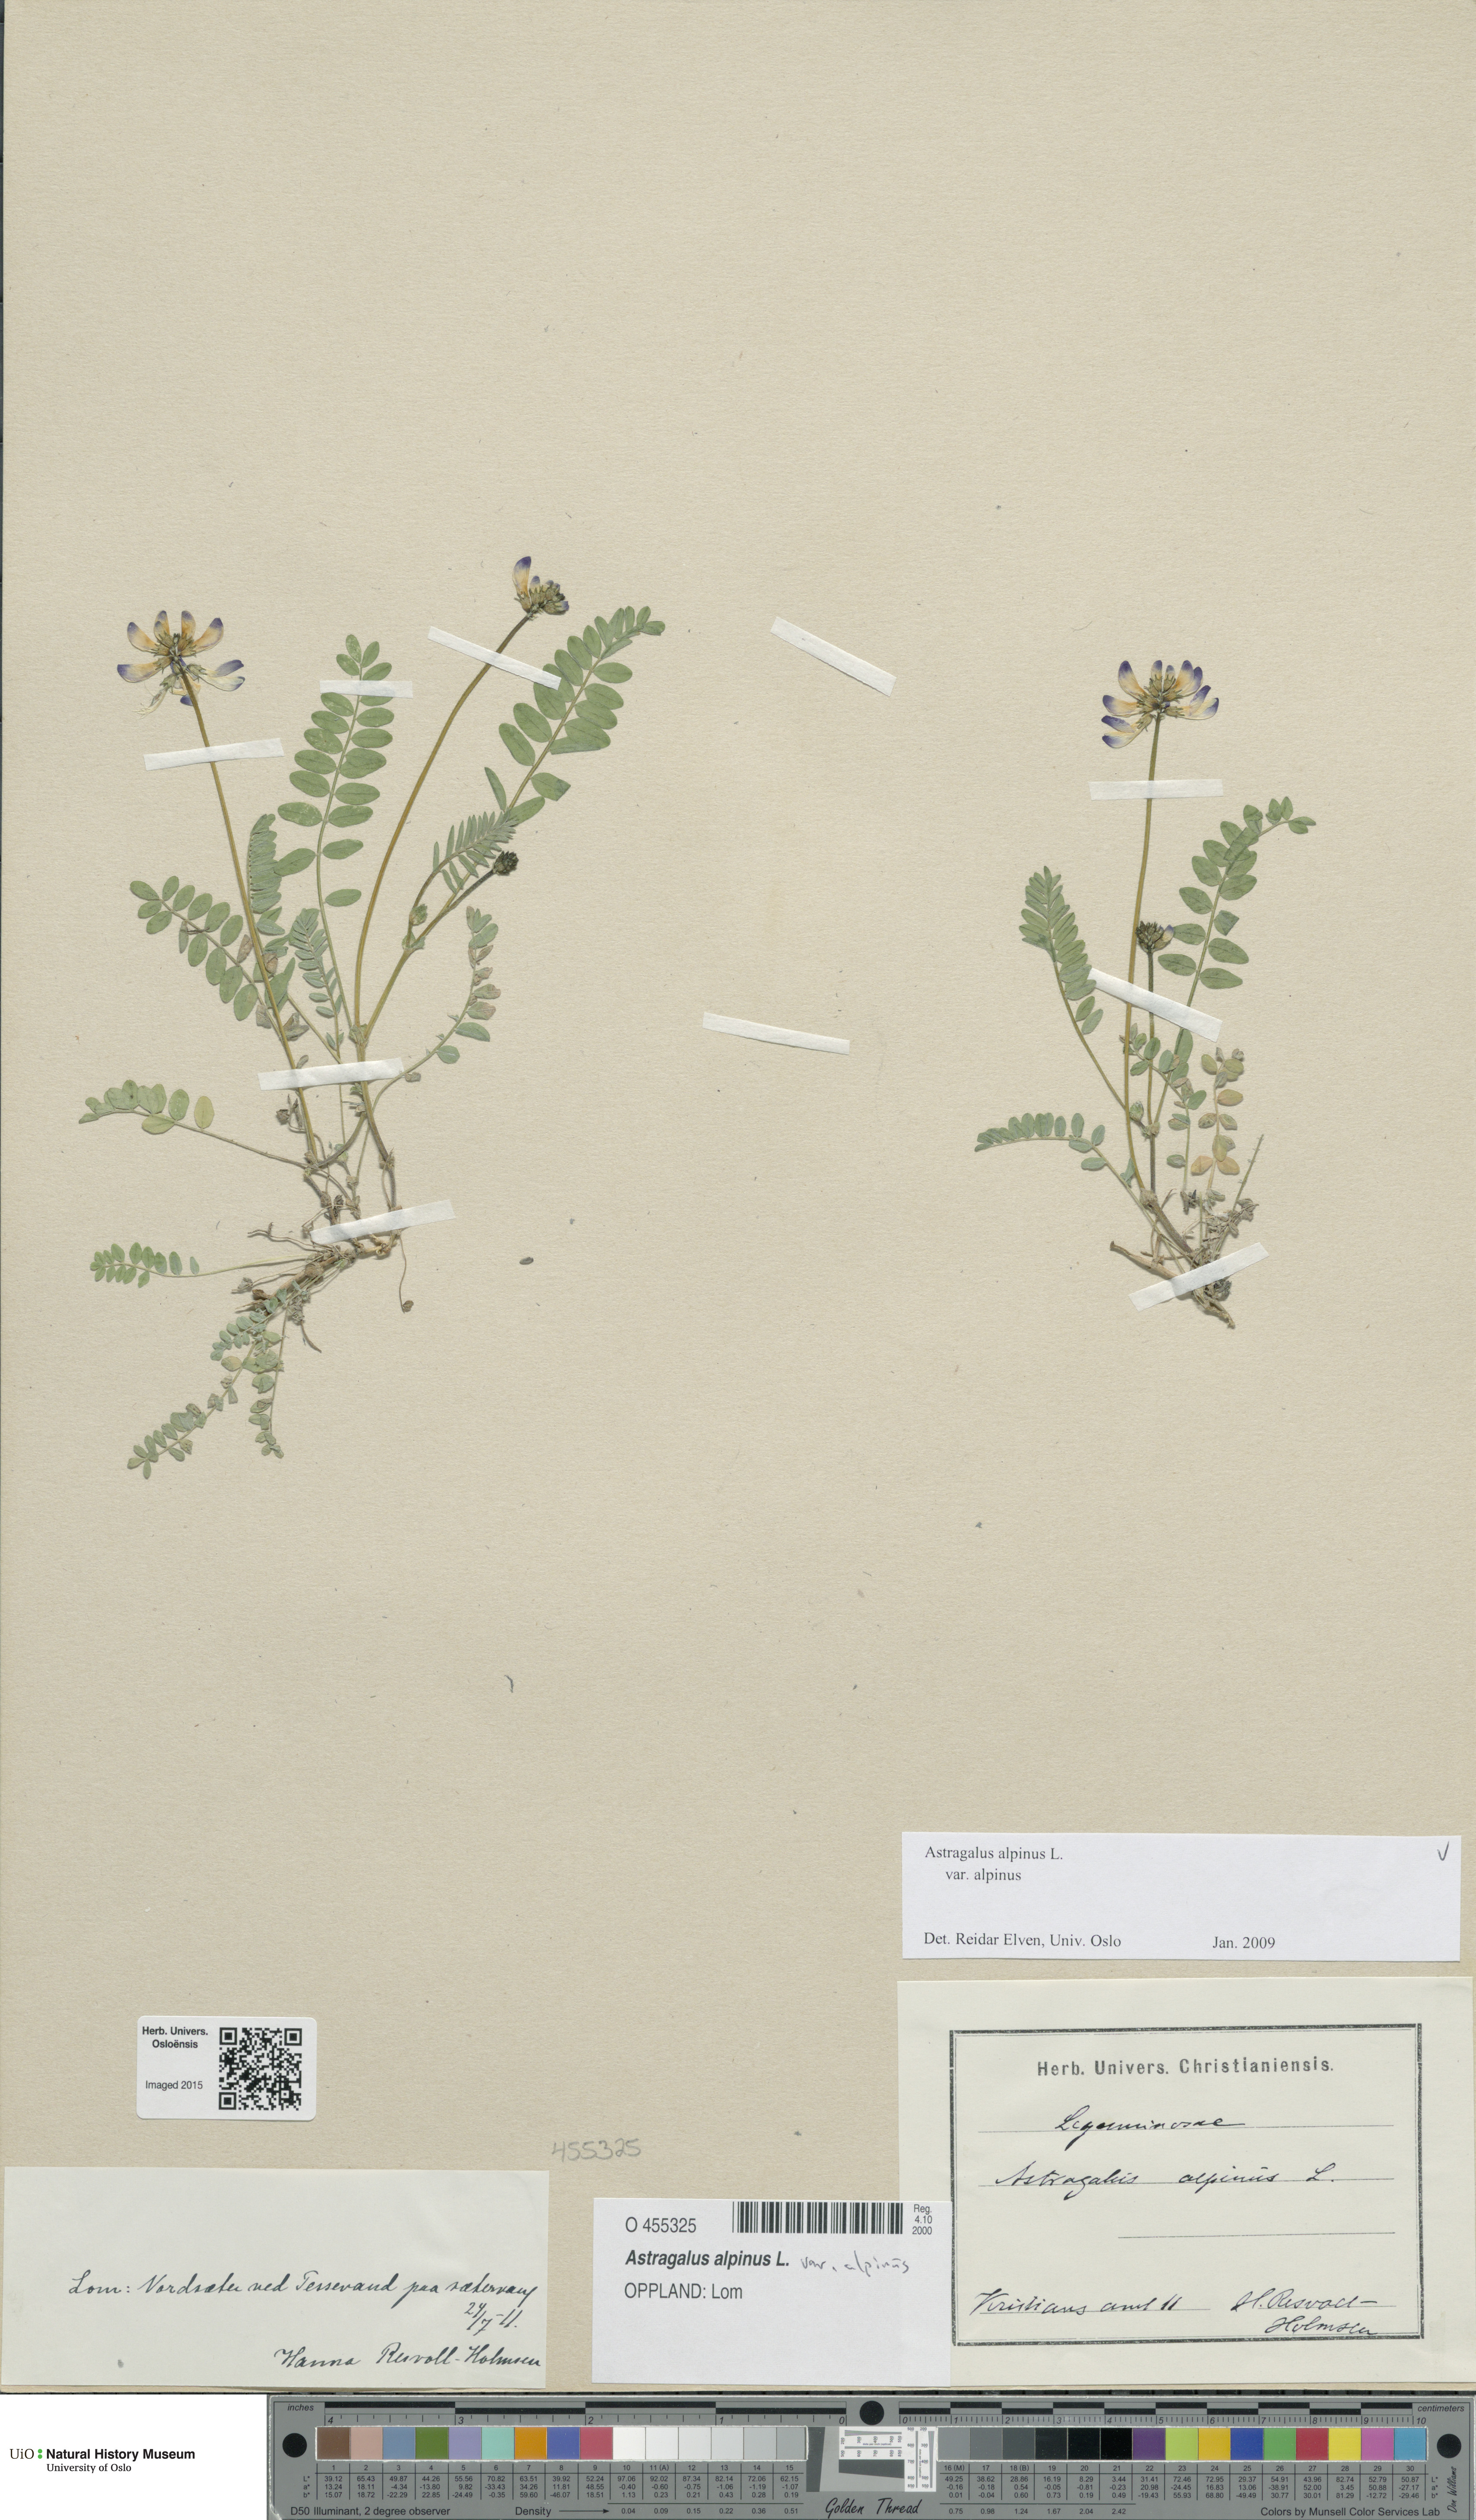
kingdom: Plantae
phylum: Tracheophyta
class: Magnoliopsida
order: Fabales
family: Fabaceae
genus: Astragalus
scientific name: Astragalus alpinus
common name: Alpine milk-vetch
